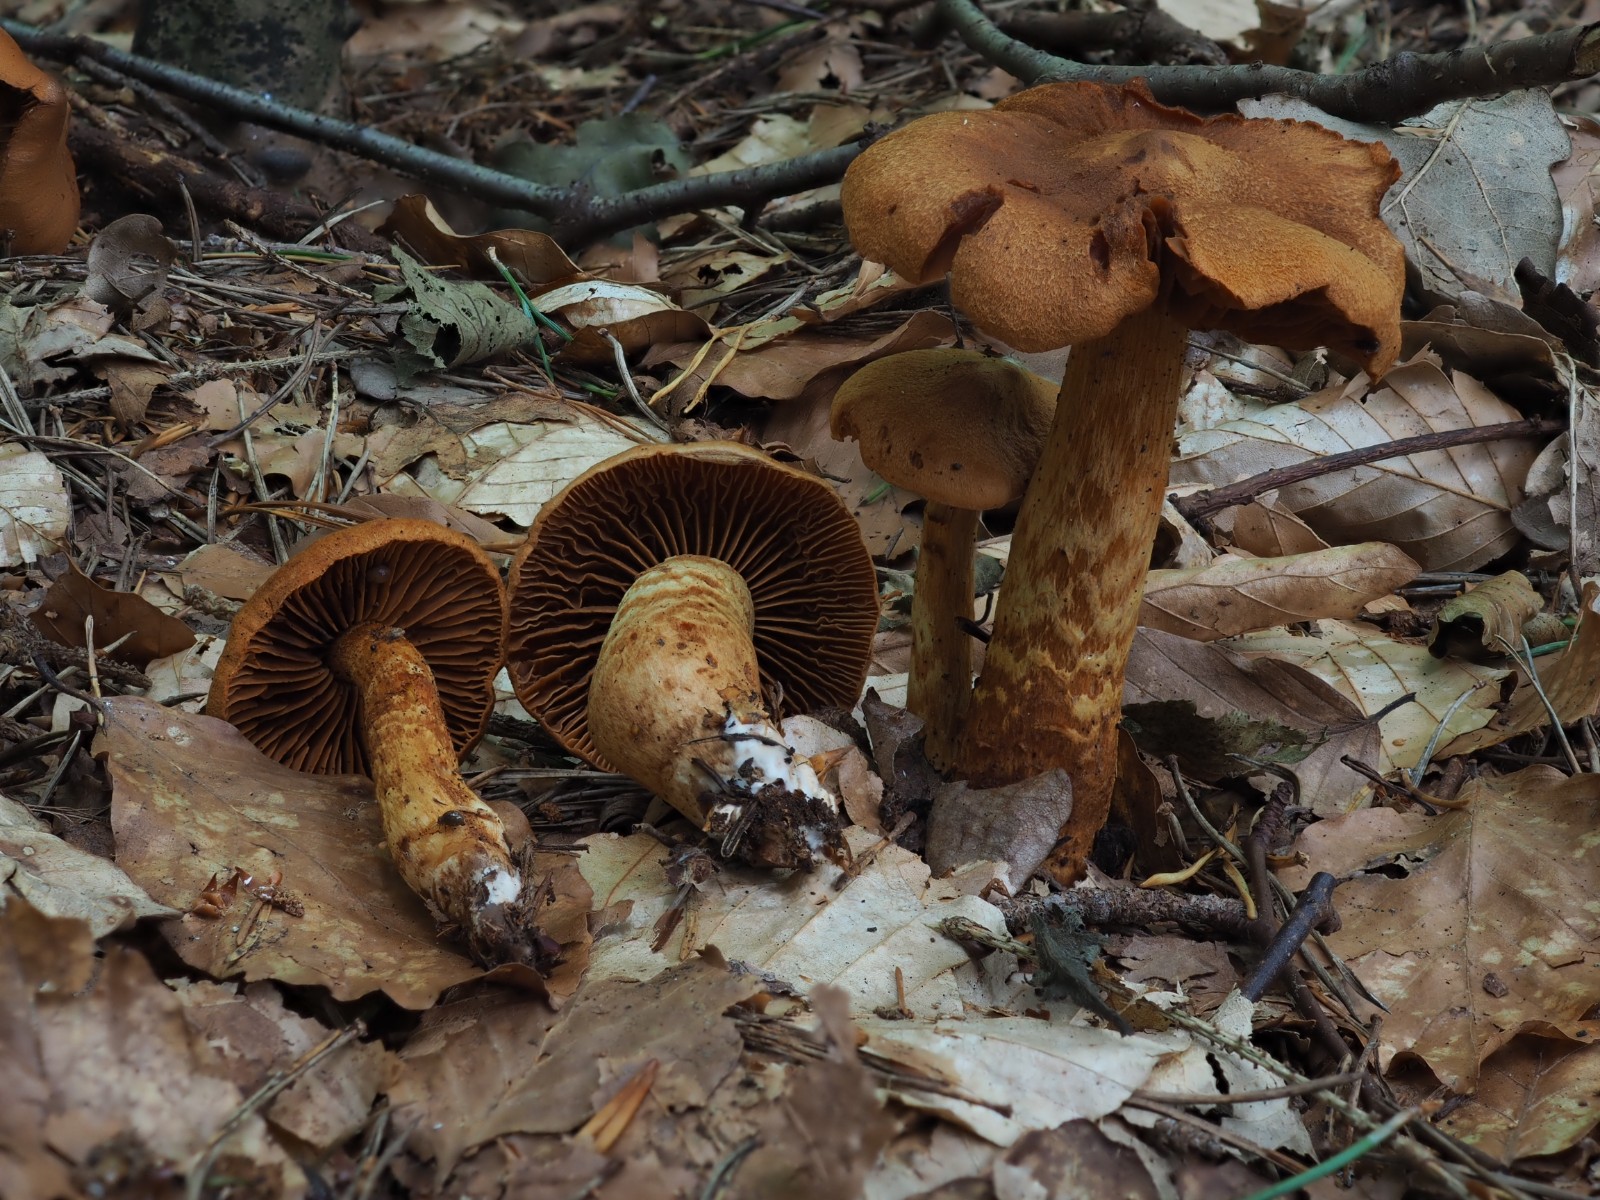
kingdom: Fungi
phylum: Basidiomycota
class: Agaricomycetes
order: Agaricales
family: Cortinariaceae
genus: Cortinarius
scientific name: Cortinarius rubellus
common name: puklet gift-slørhat
